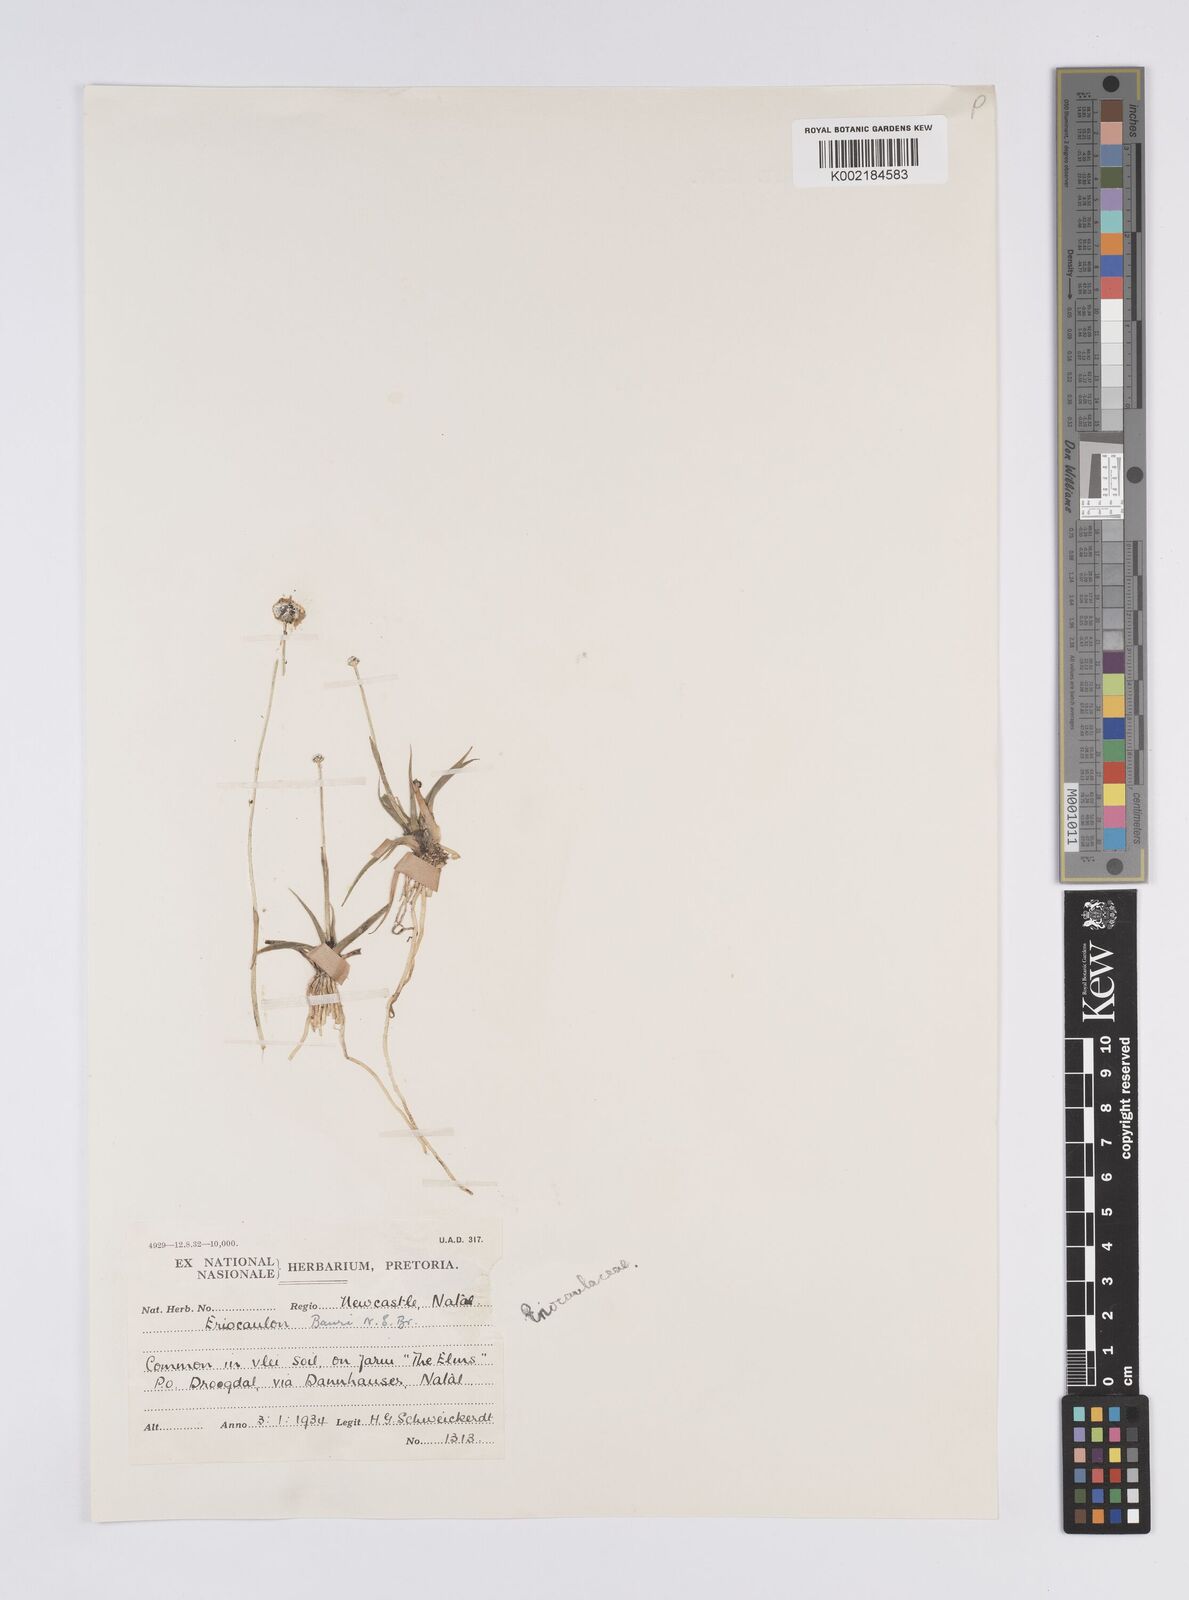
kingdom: Plantae
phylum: Tracheophyta
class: Liliopsida
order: Poales
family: Eriocaulaceae
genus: Eriocaulon
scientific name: Eriocaulon sonderianum
